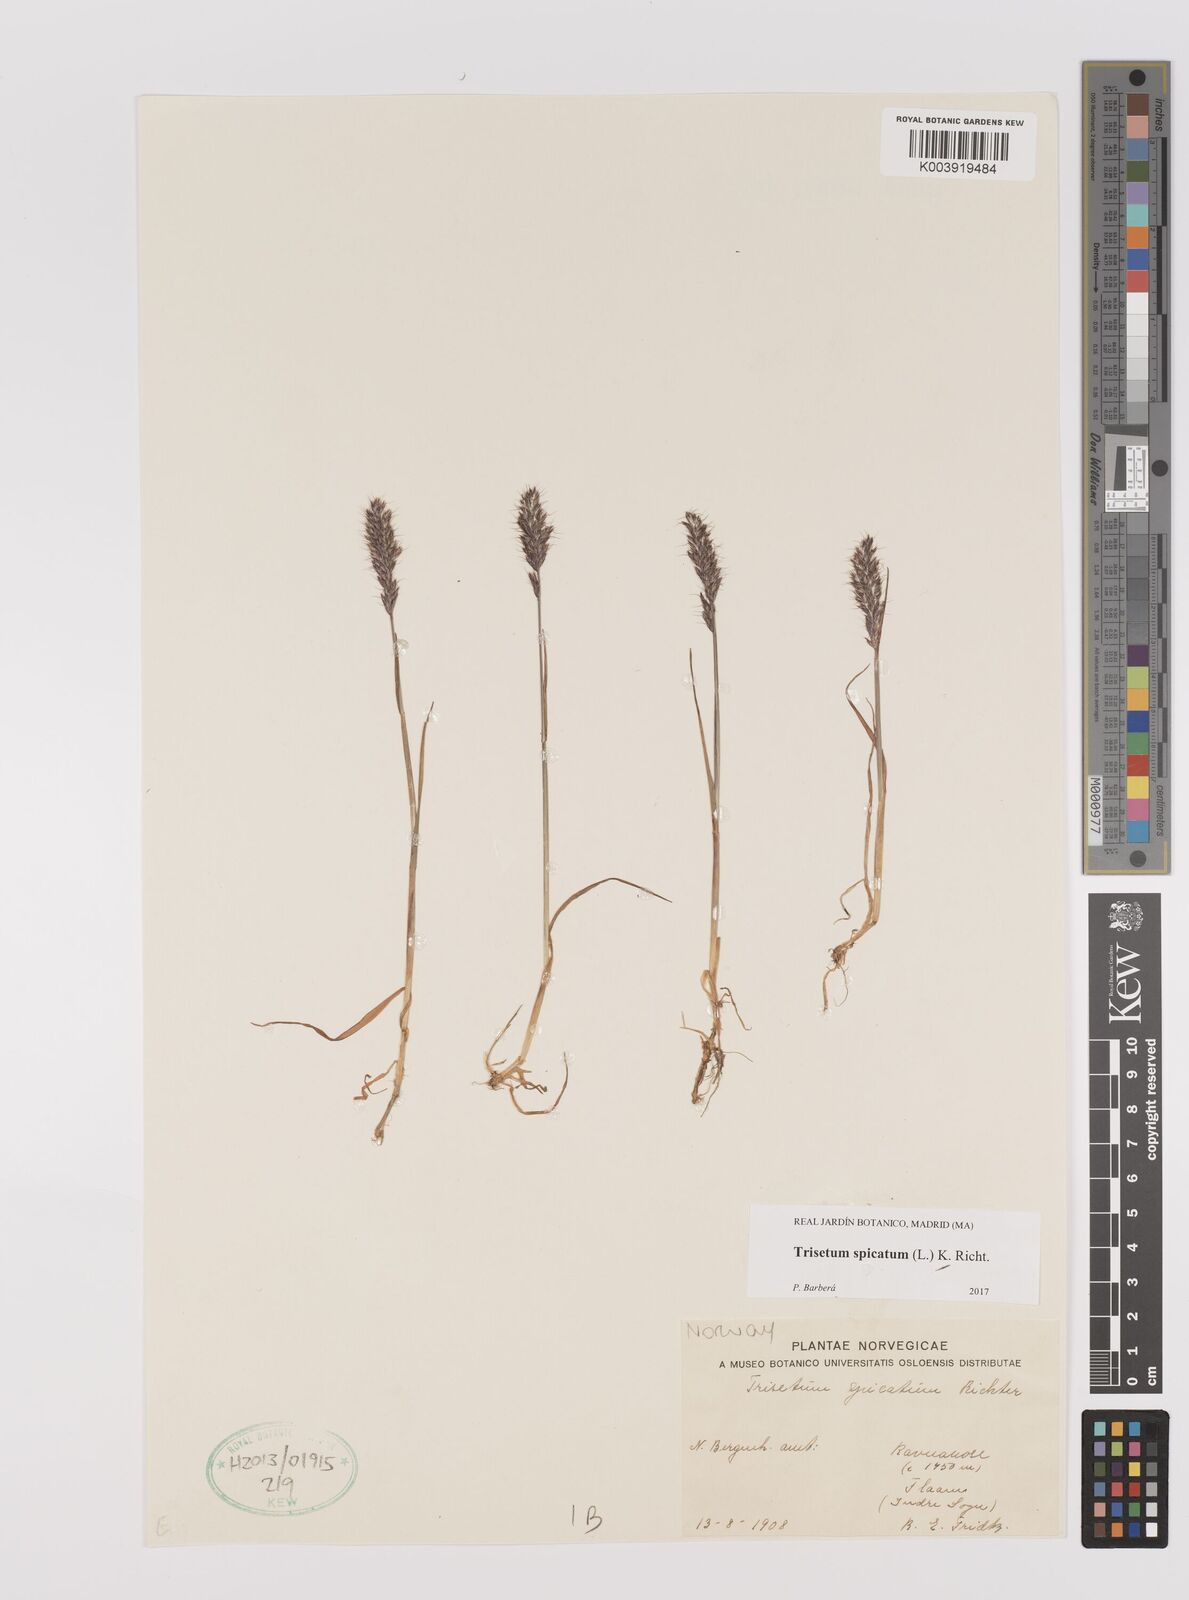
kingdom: Plantae
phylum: Tracheophyta
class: Liliopsida
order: Poales
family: Poaceae
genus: Koeleria
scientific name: Koeleria spicata
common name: Mountain trisetum
